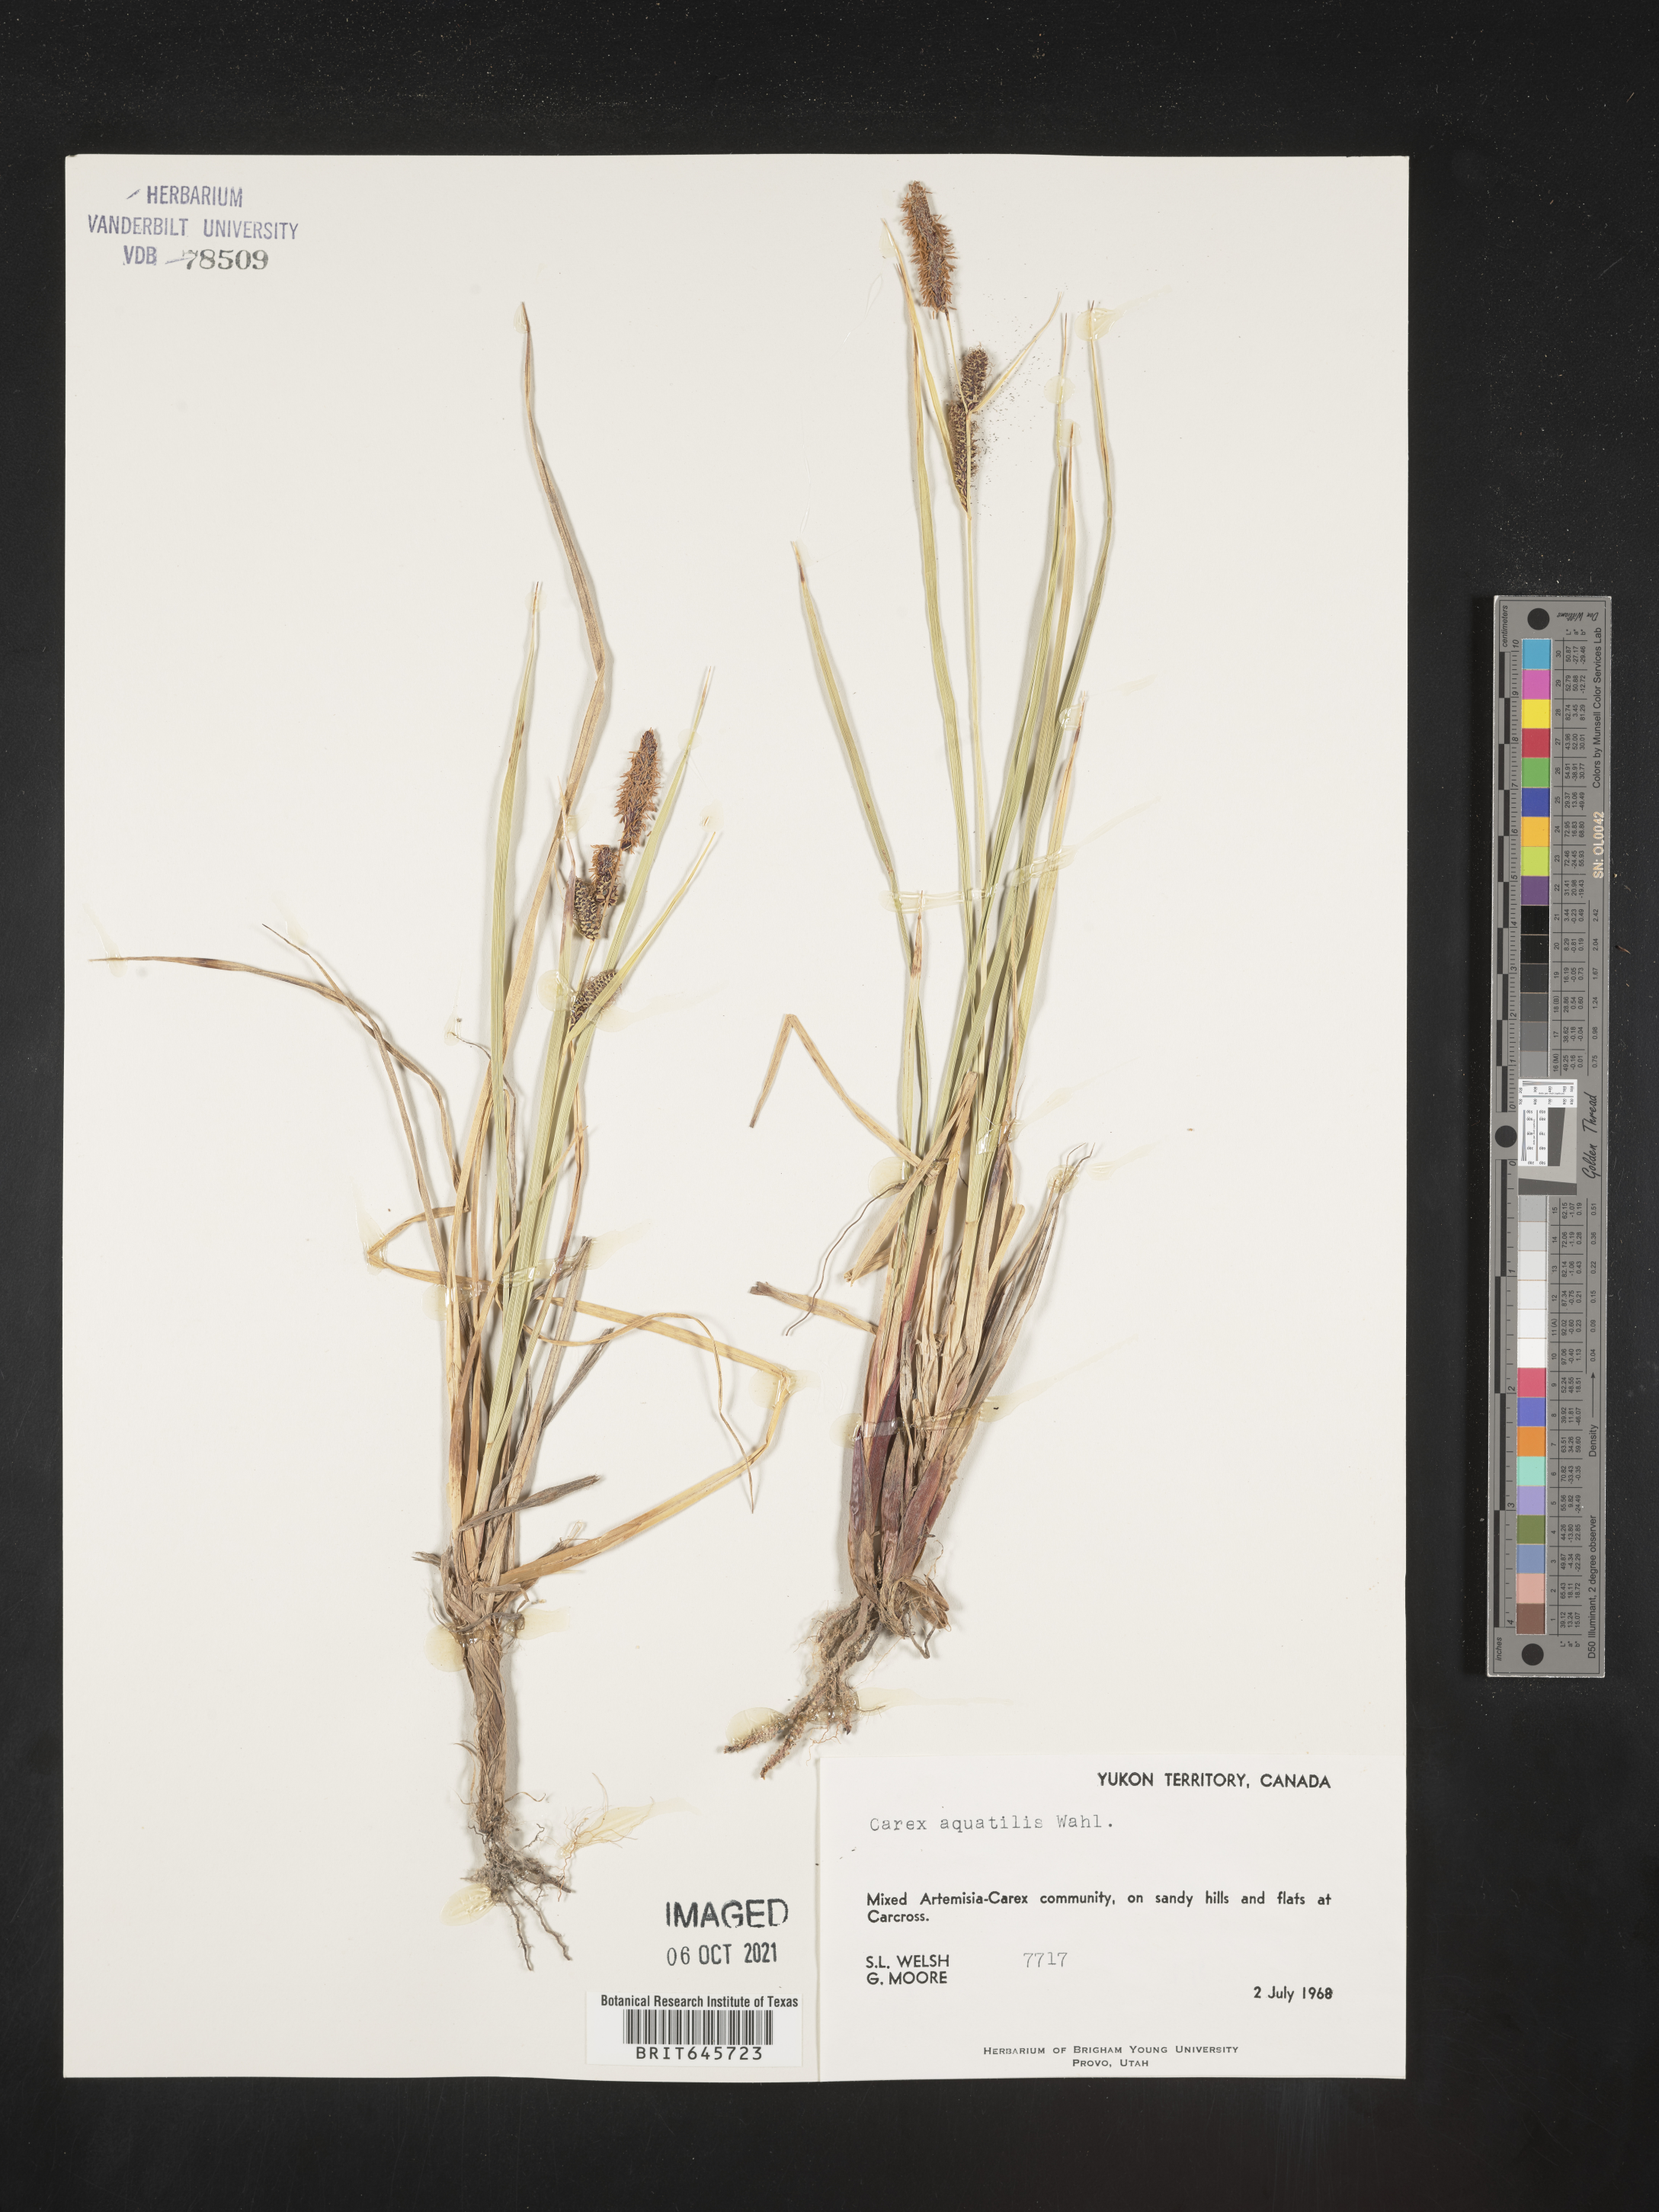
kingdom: Plantae
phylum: Tracheophyta
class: Liliopsida
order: Poales
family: Cyperaceae
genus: Carex
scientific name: Carex aquatilis
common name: Water sedge
